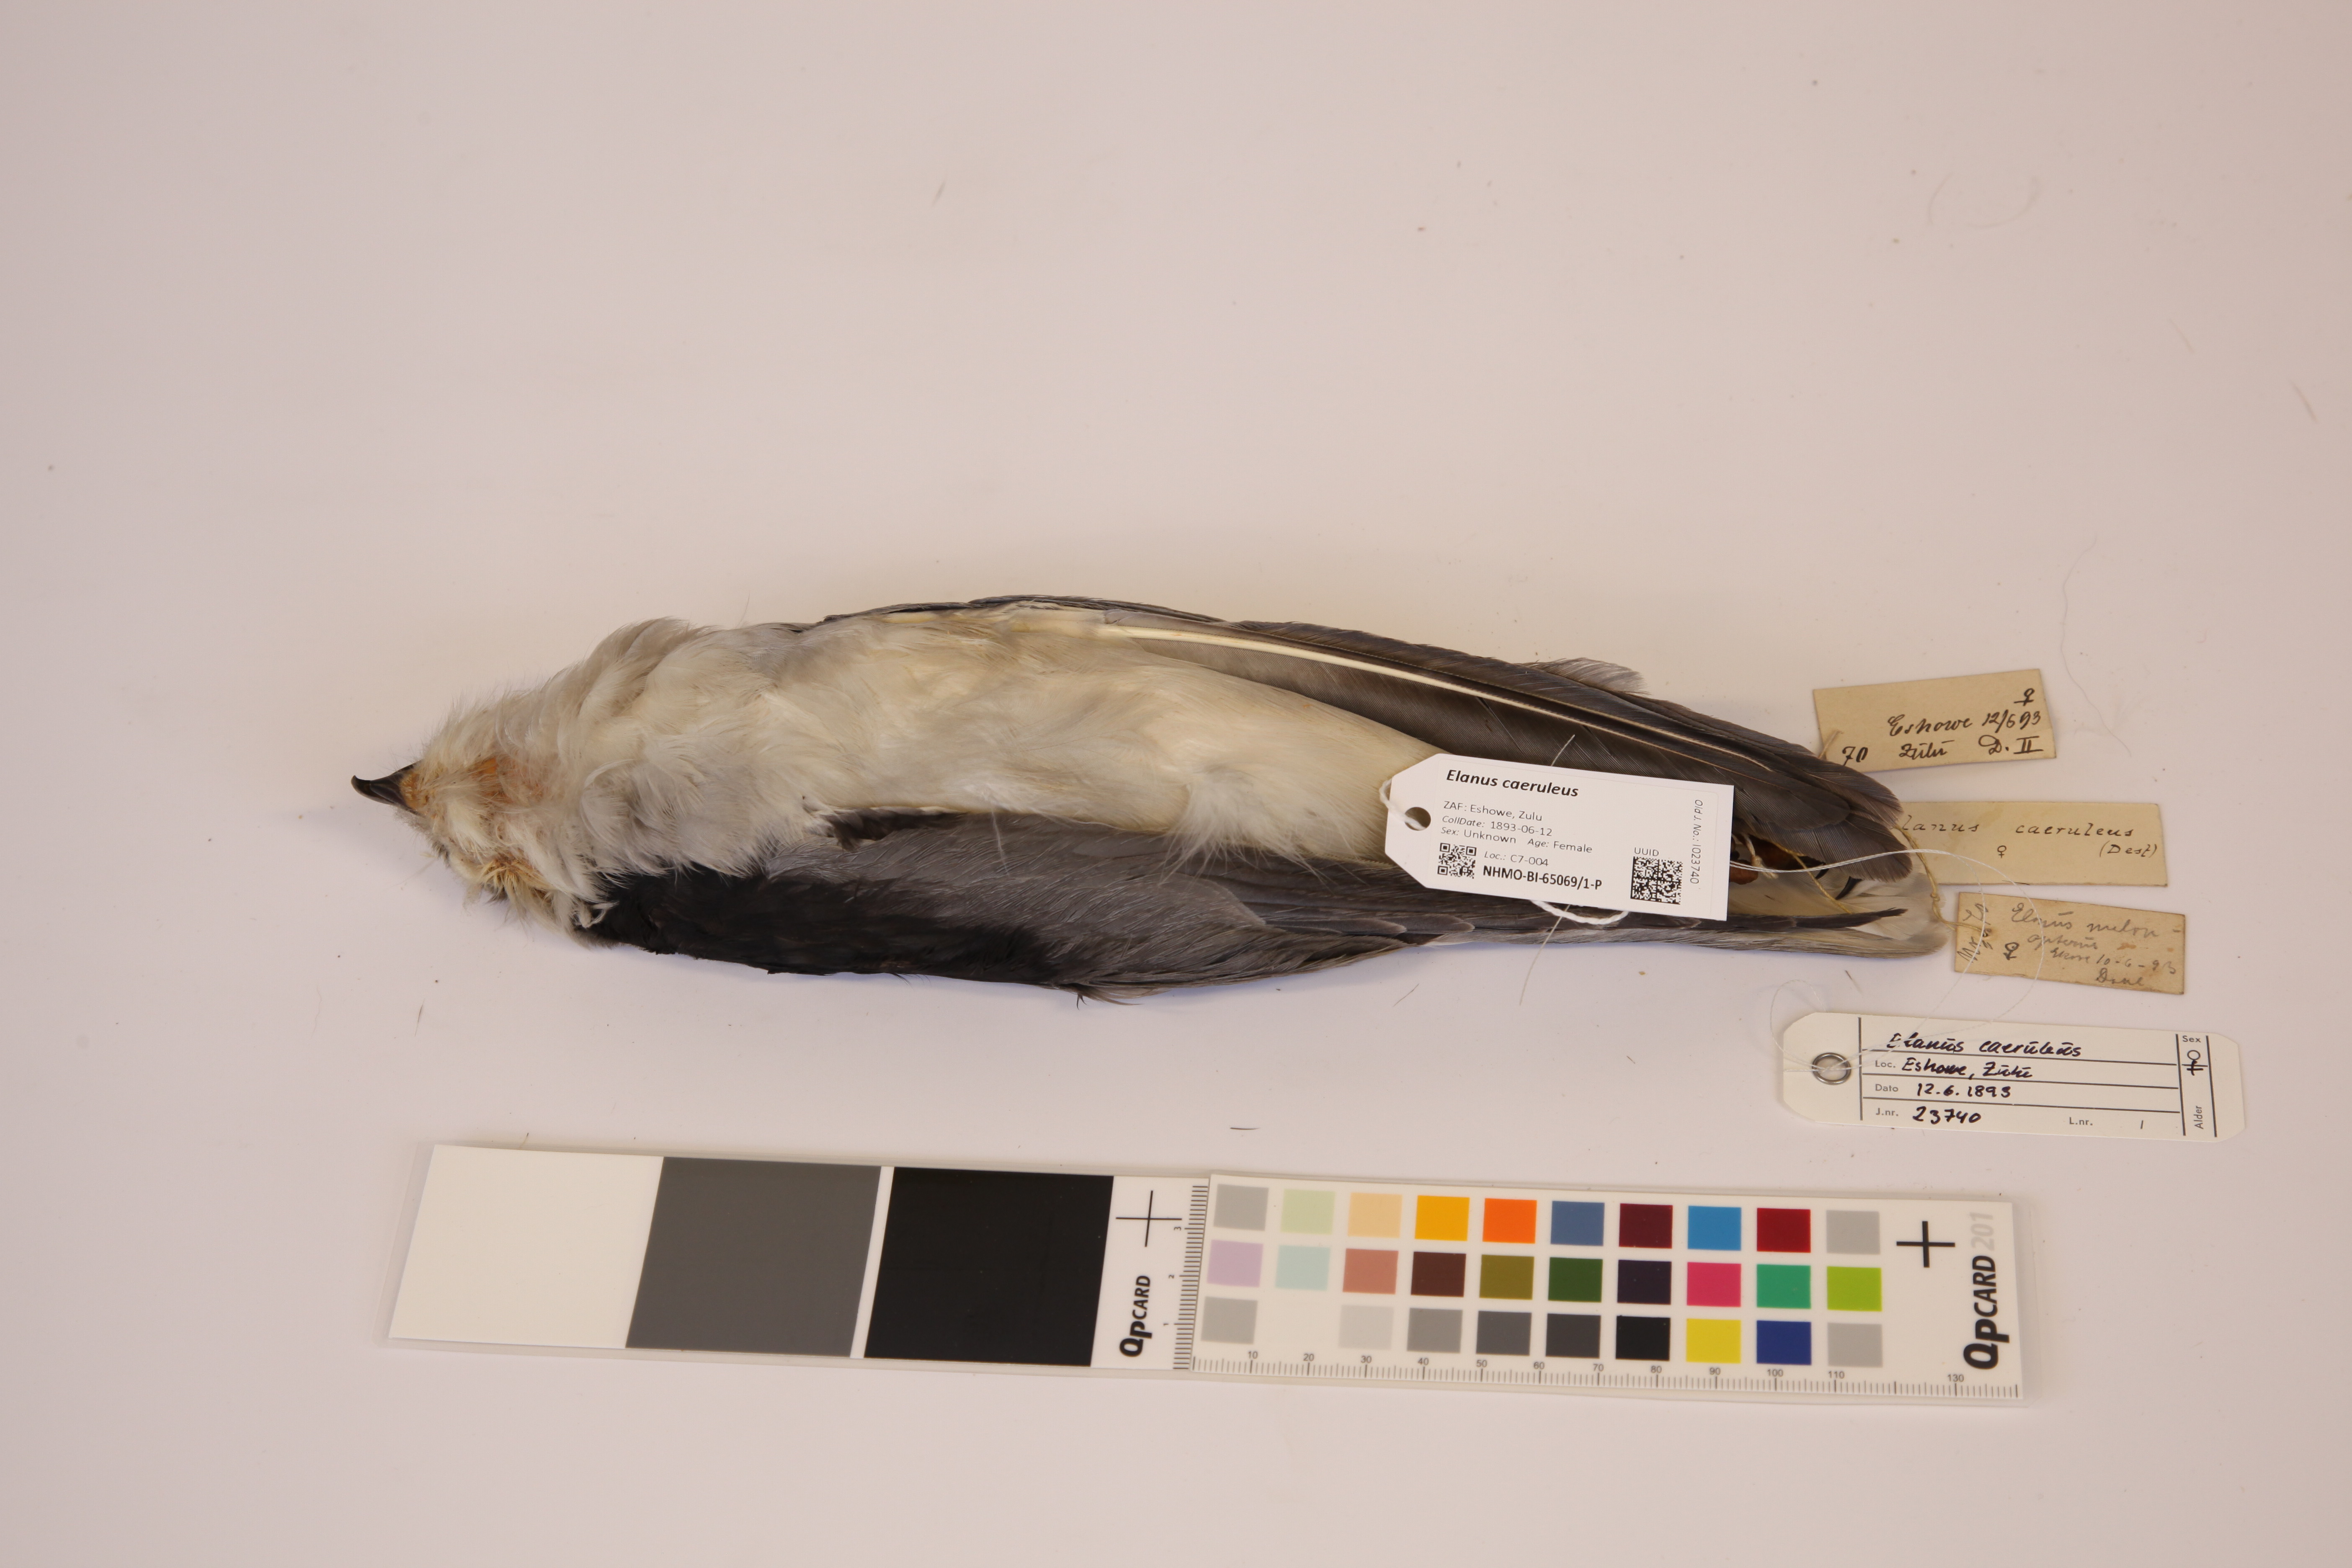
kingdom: Animalia
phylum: Chordata
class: Aves
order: Accipitriformes
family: Accipitridae
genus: Elanus
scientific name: Elanus caeruleus
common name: Black-winged kite
